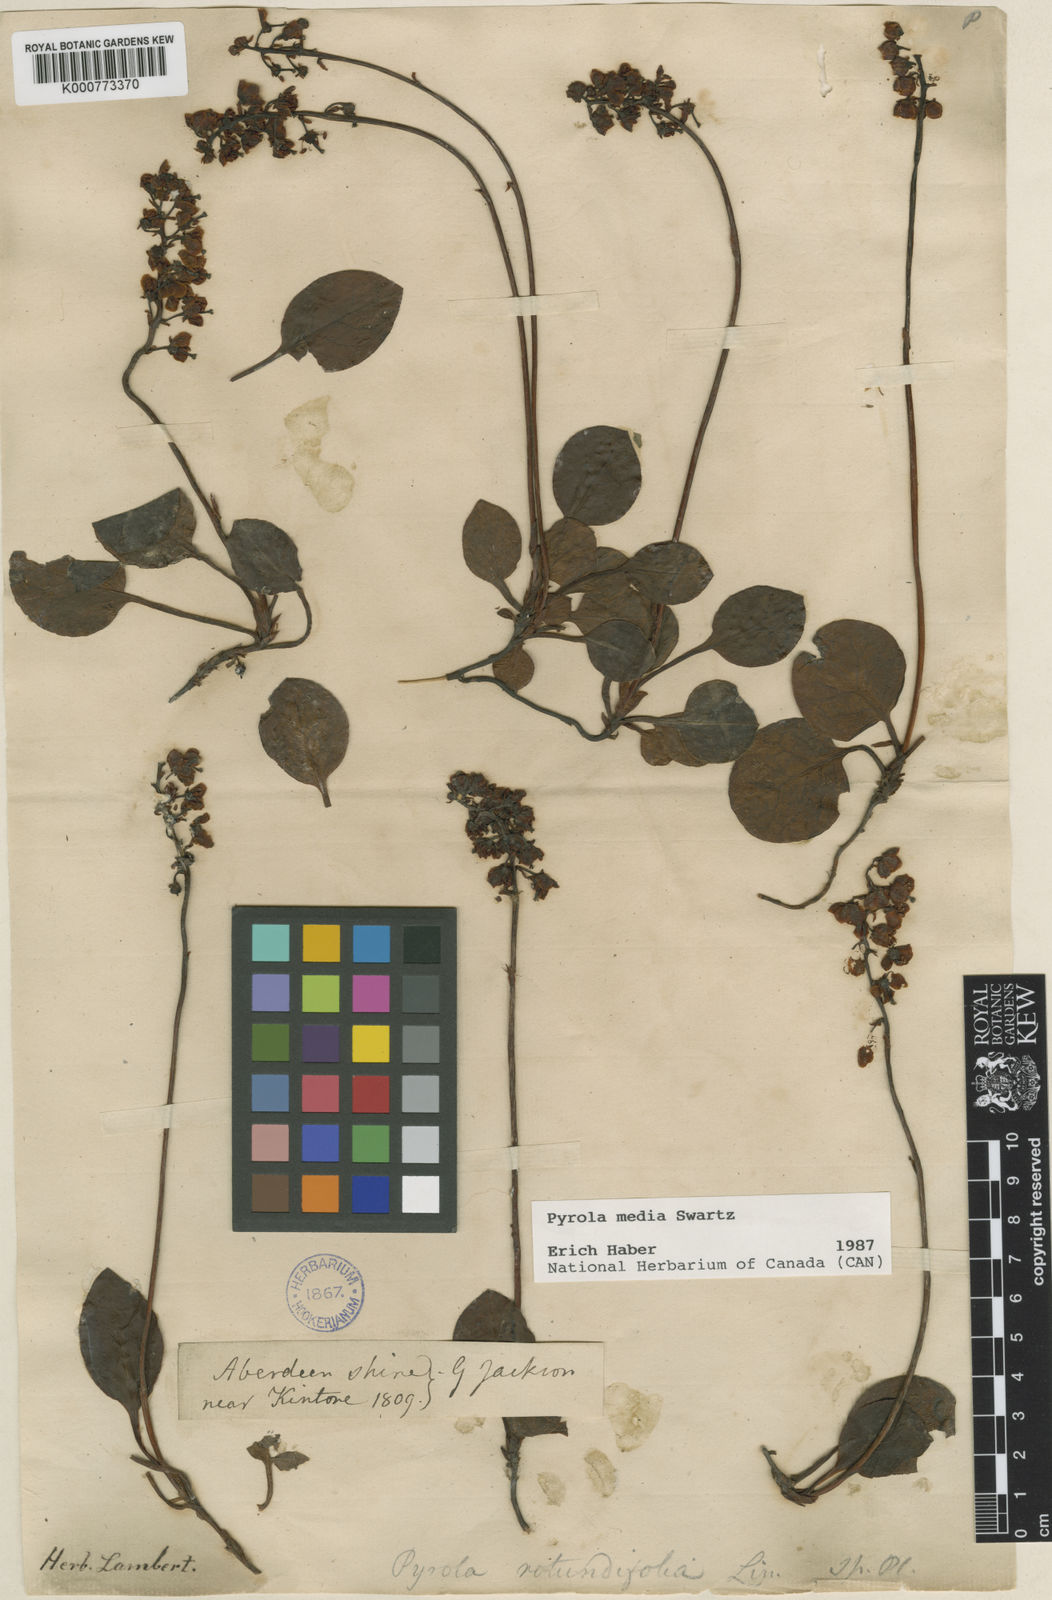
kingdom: Plantae
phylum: Tracheophyta
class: Magnoliopsida
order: Ericales
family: Ericaceae
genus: Pyrola
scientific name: Pyrola media
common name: Intermediate wintergreen
